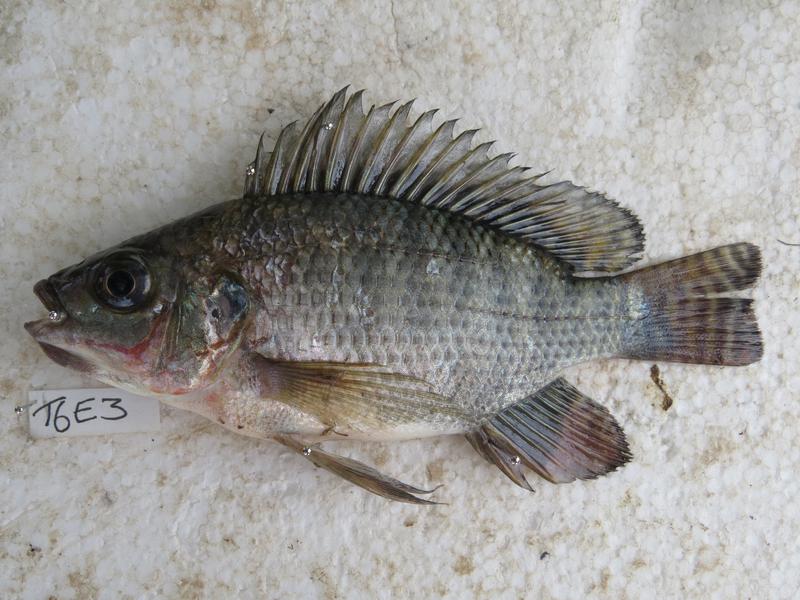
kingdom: Animalia
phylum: Chordata
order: Perciformes
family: Cichlidae
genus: Oreochromis
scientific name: Oreochromis niloticus
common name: Nile tilapia
